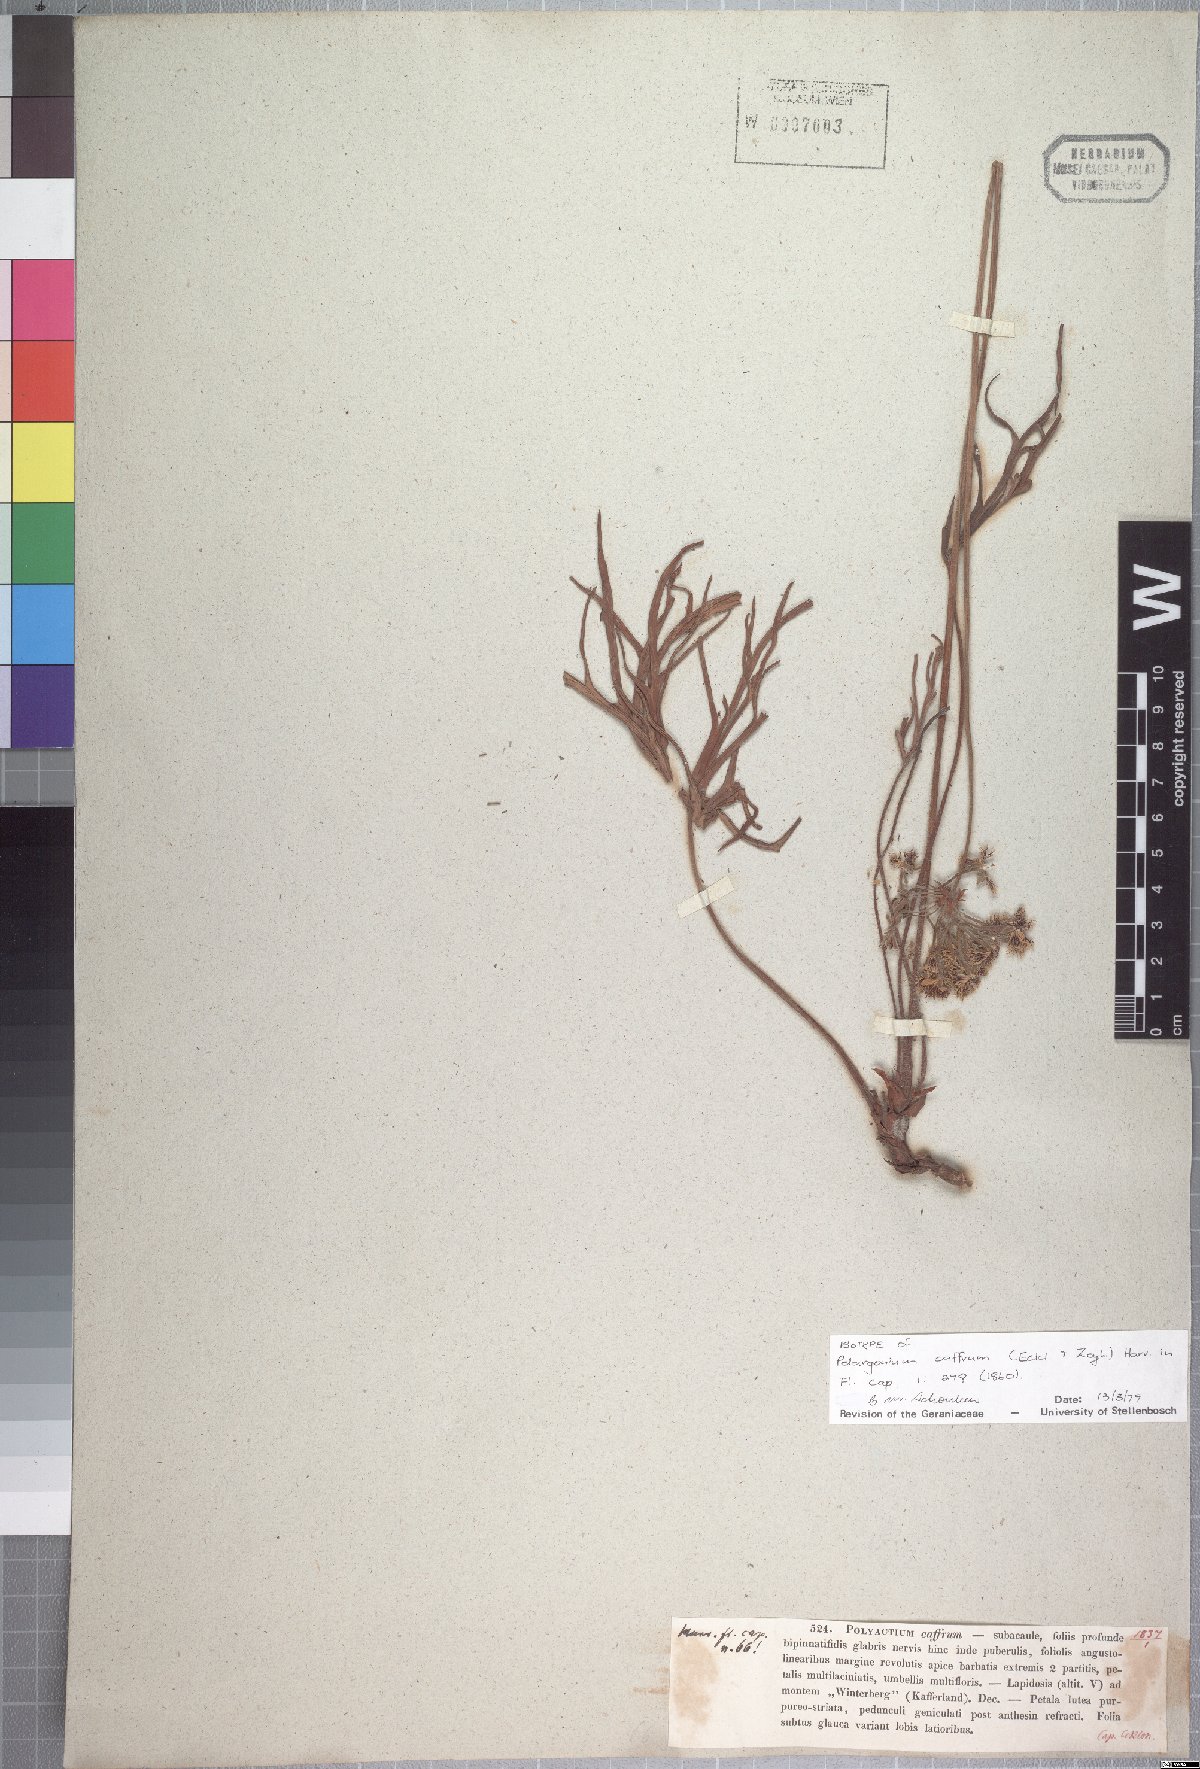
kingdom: Plantae
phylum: Tracheophyta
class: Magnoliopsida
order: Geraniales
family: Geraniaceae
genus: Pelargonium
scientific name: Pelargonium caffrum
